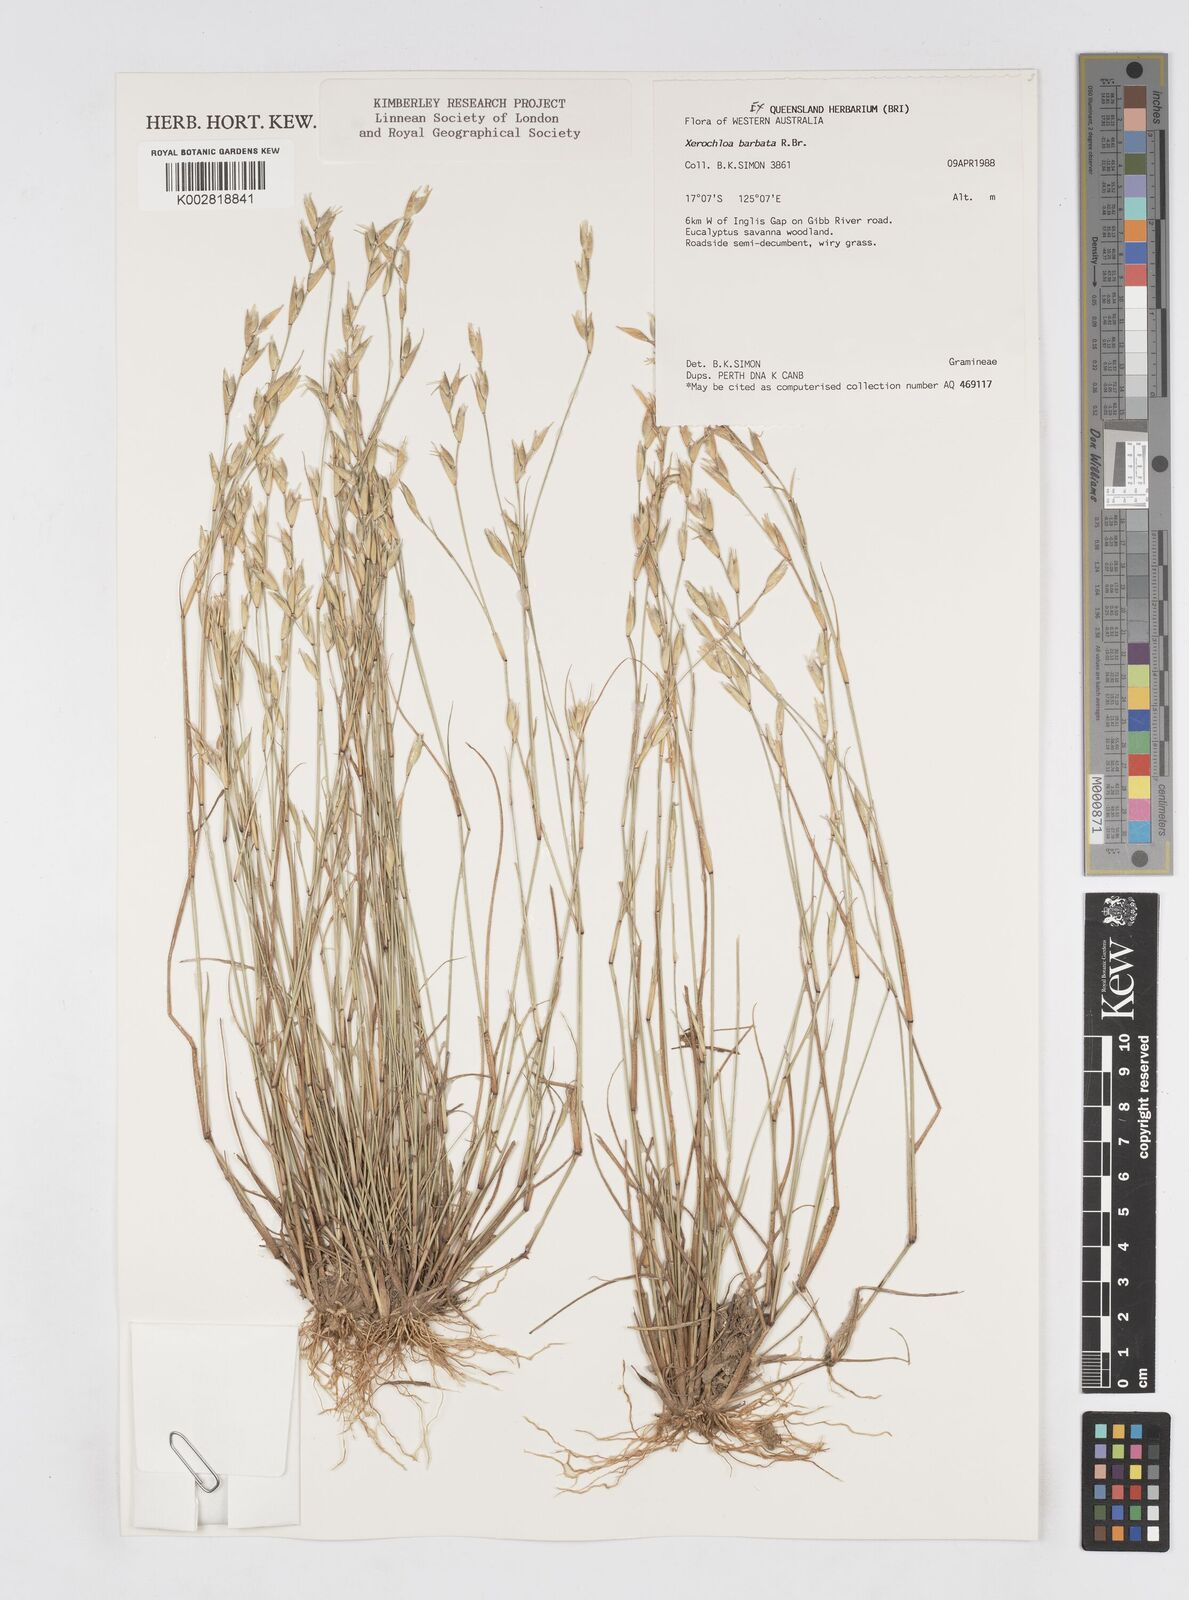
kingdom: Plantae
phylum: Tracheophyta
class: Liliopsida
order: Poales
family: Poaceae
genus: Xerochloa
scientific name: Xerochloa barbata
